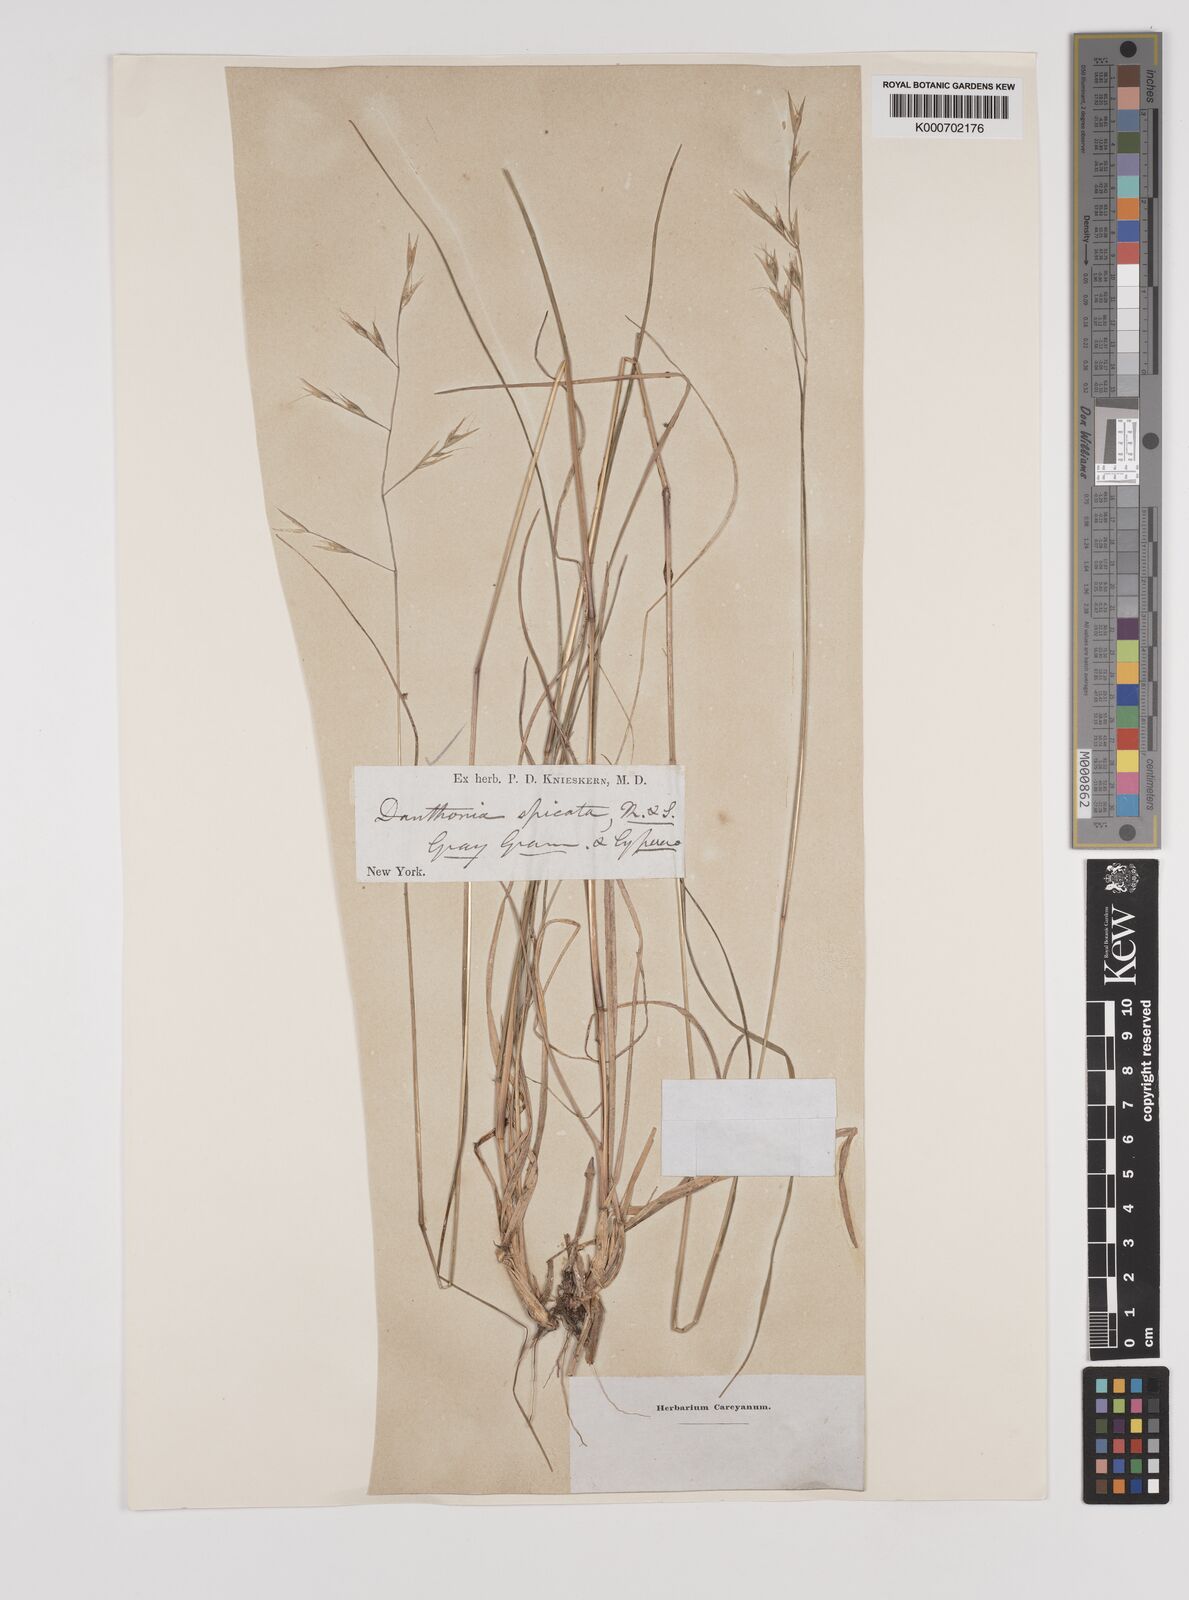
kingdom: Plantae
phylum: Tracheophyta
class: Liliopsida
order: Poales
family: Poaceae
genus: Danthonia
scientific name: Danthonia spicata
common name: Common wild oatgrass
